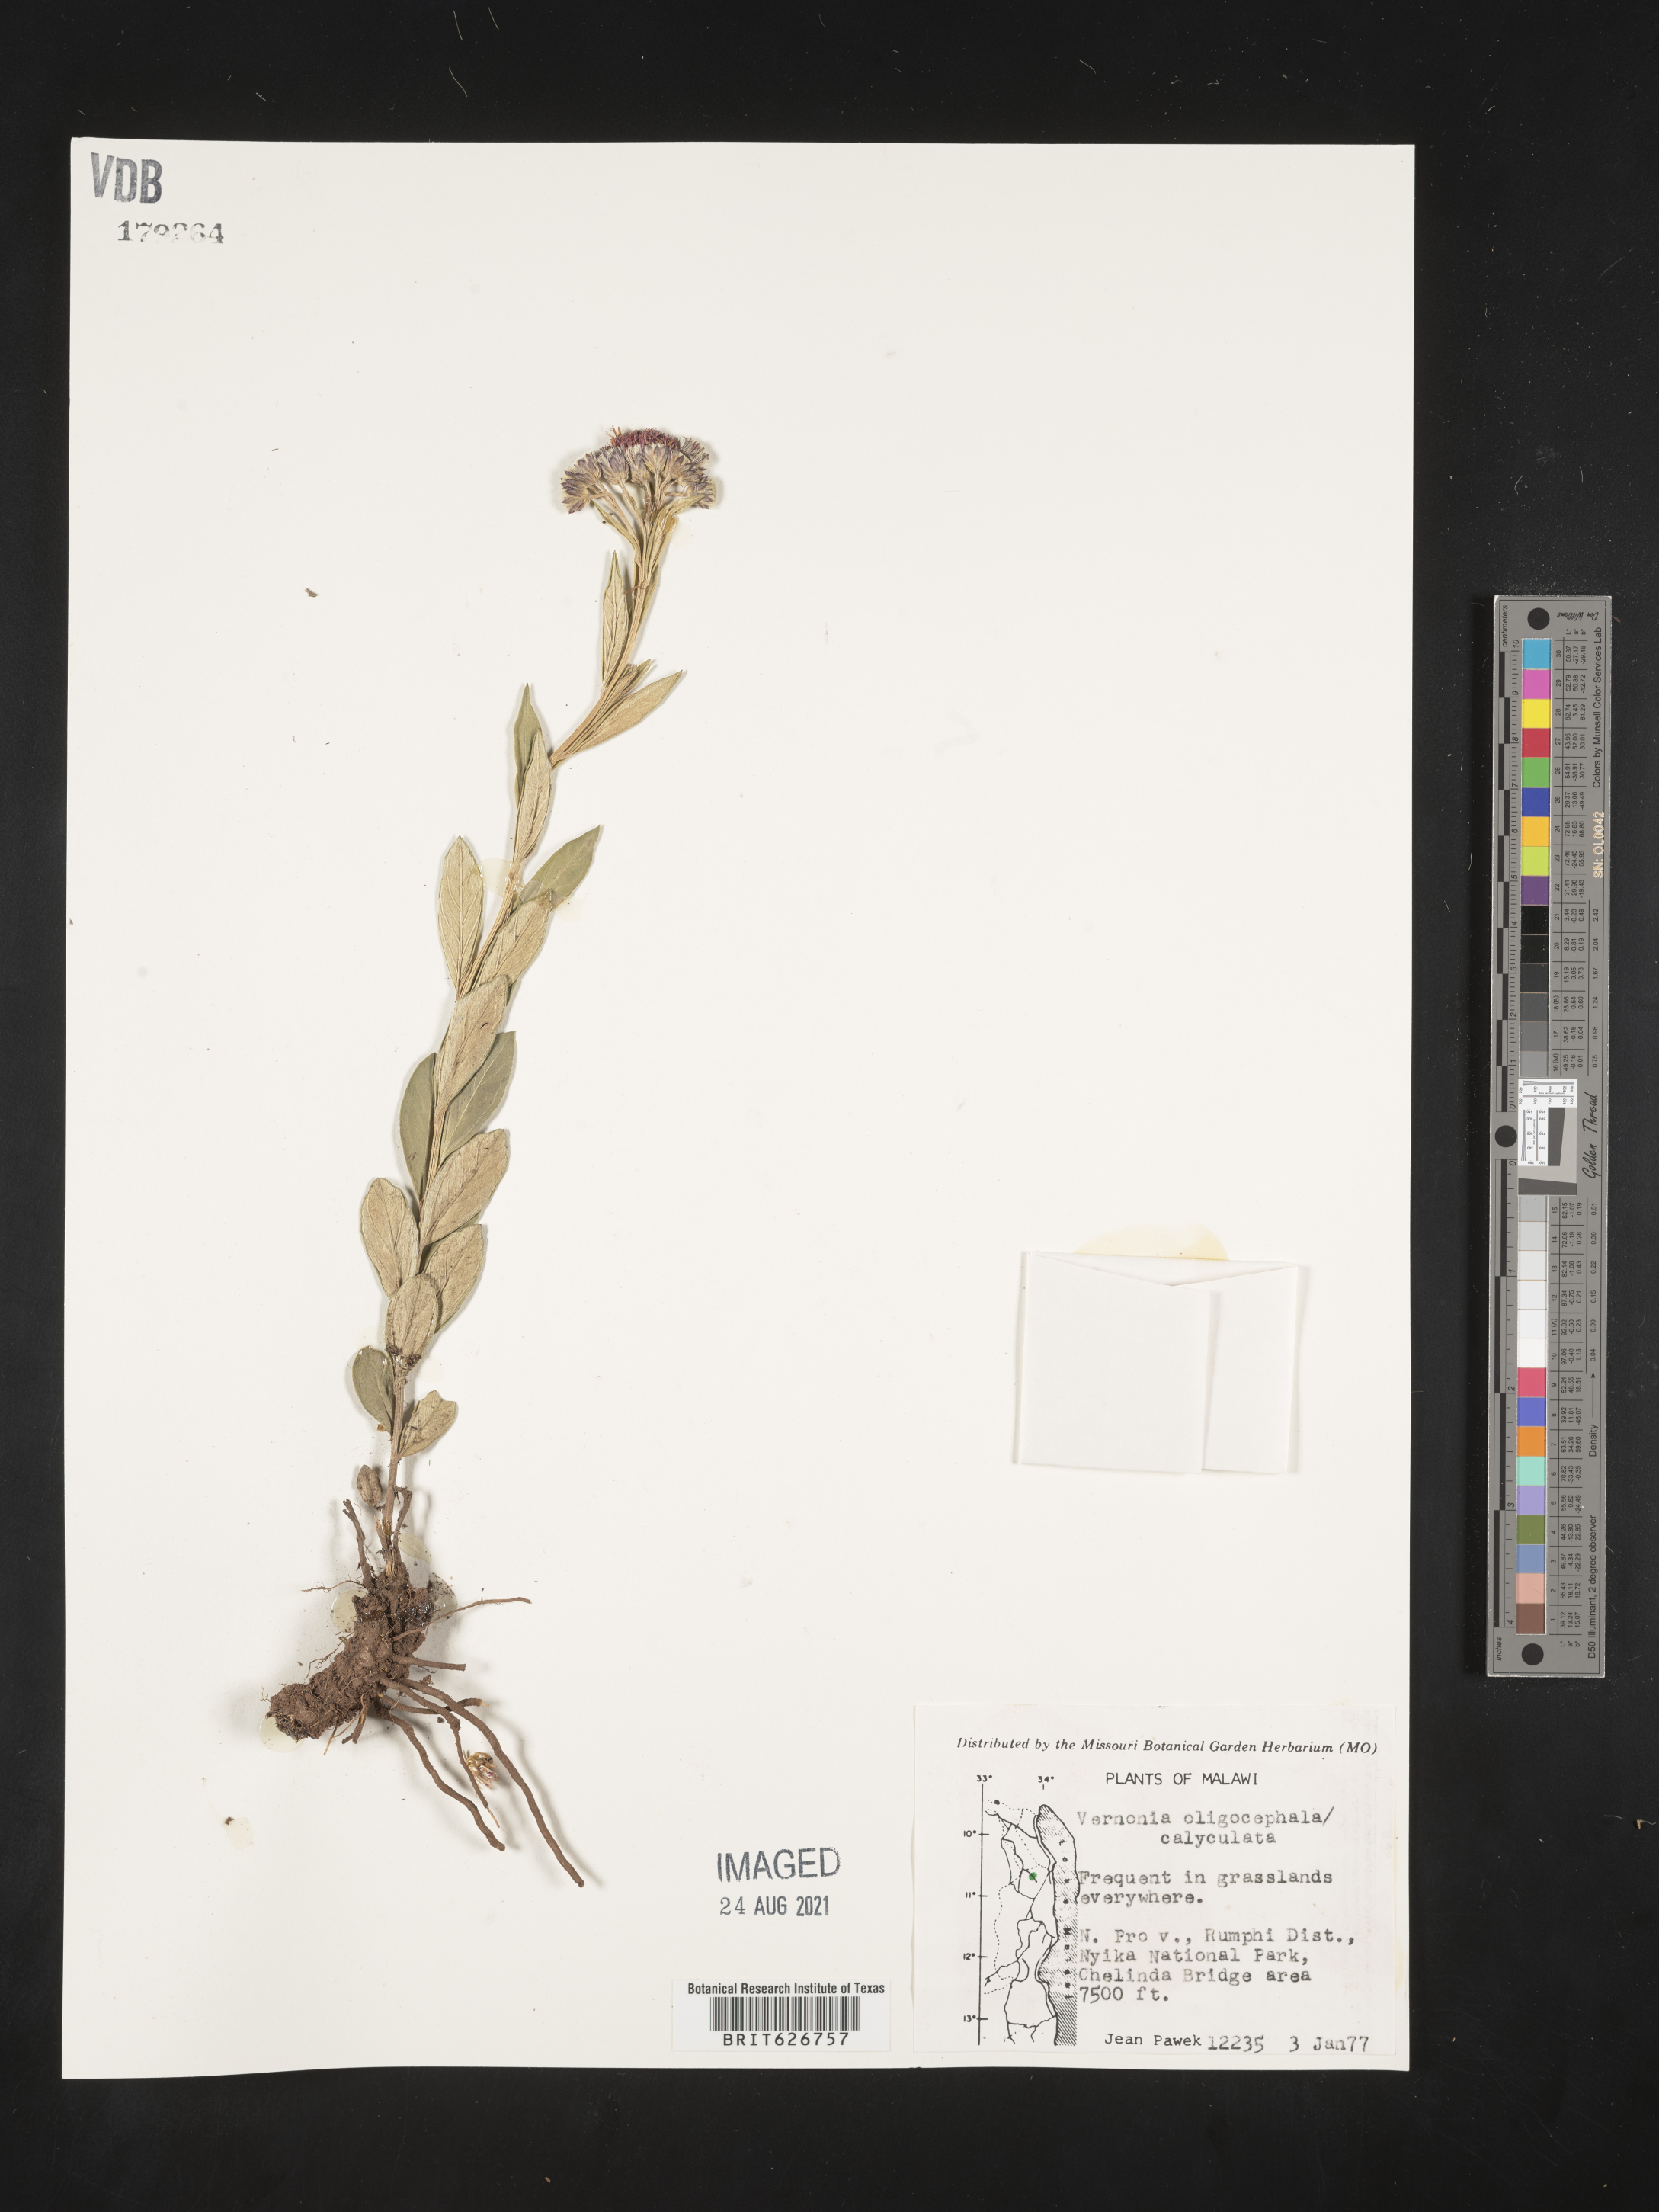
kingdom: Plantae
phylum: Tracheophyta
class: Magnoliopsida
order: Asterales
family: Asteraceae
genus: Hilliardiella
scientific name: Hilliardiella oligocephala
